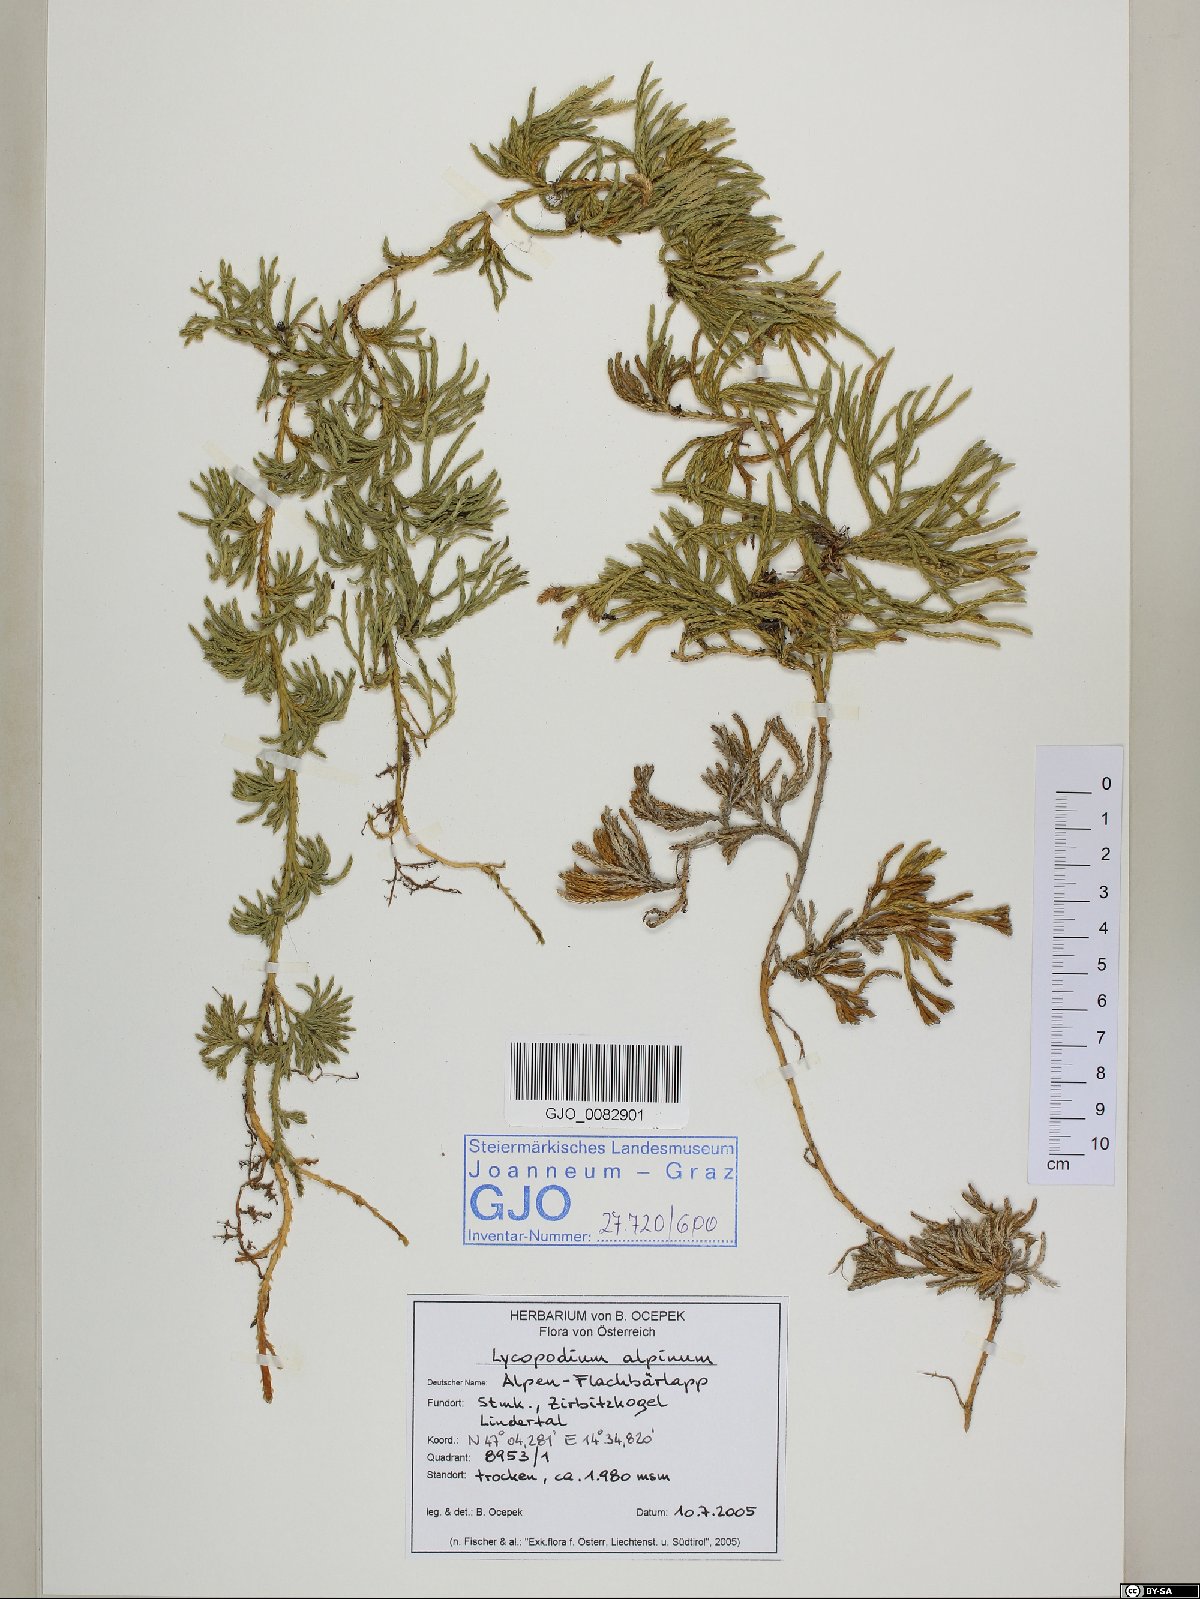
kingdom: Plantae
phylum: Tracheophyta
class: Lycopodiopsida
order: Lycopodiales
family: Lycopodiaceae
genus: Diphasiastrum
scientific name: Diphasiastrum alpinum
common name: Alpine clubmoss
